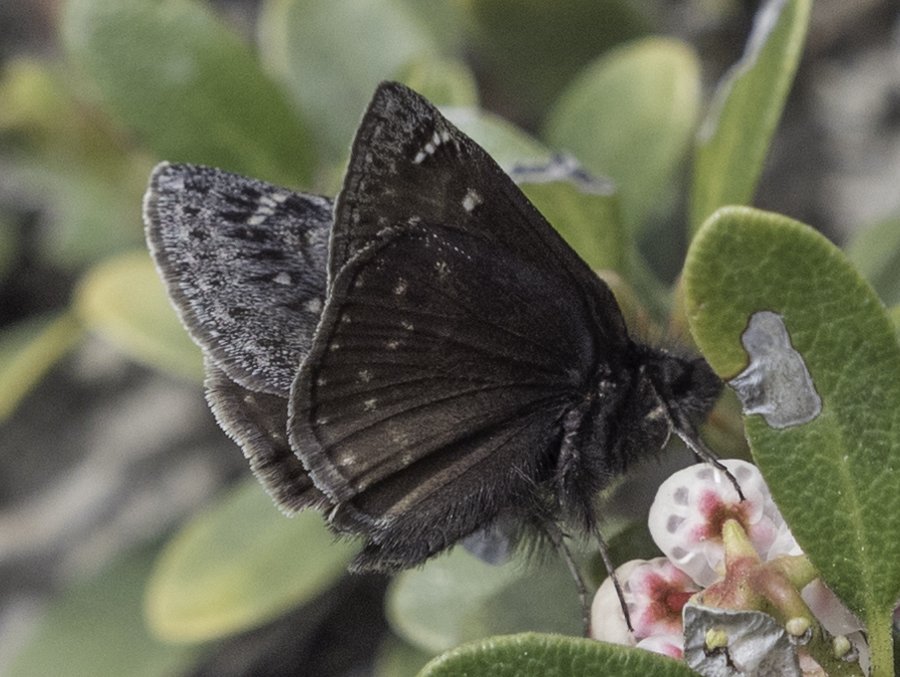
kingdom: Animalia
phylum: Arthropoda
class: Insecta
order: Lepidoptera
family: Hesperiidae
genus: Gesta
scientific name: Gesta
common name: Persius Duskywing
